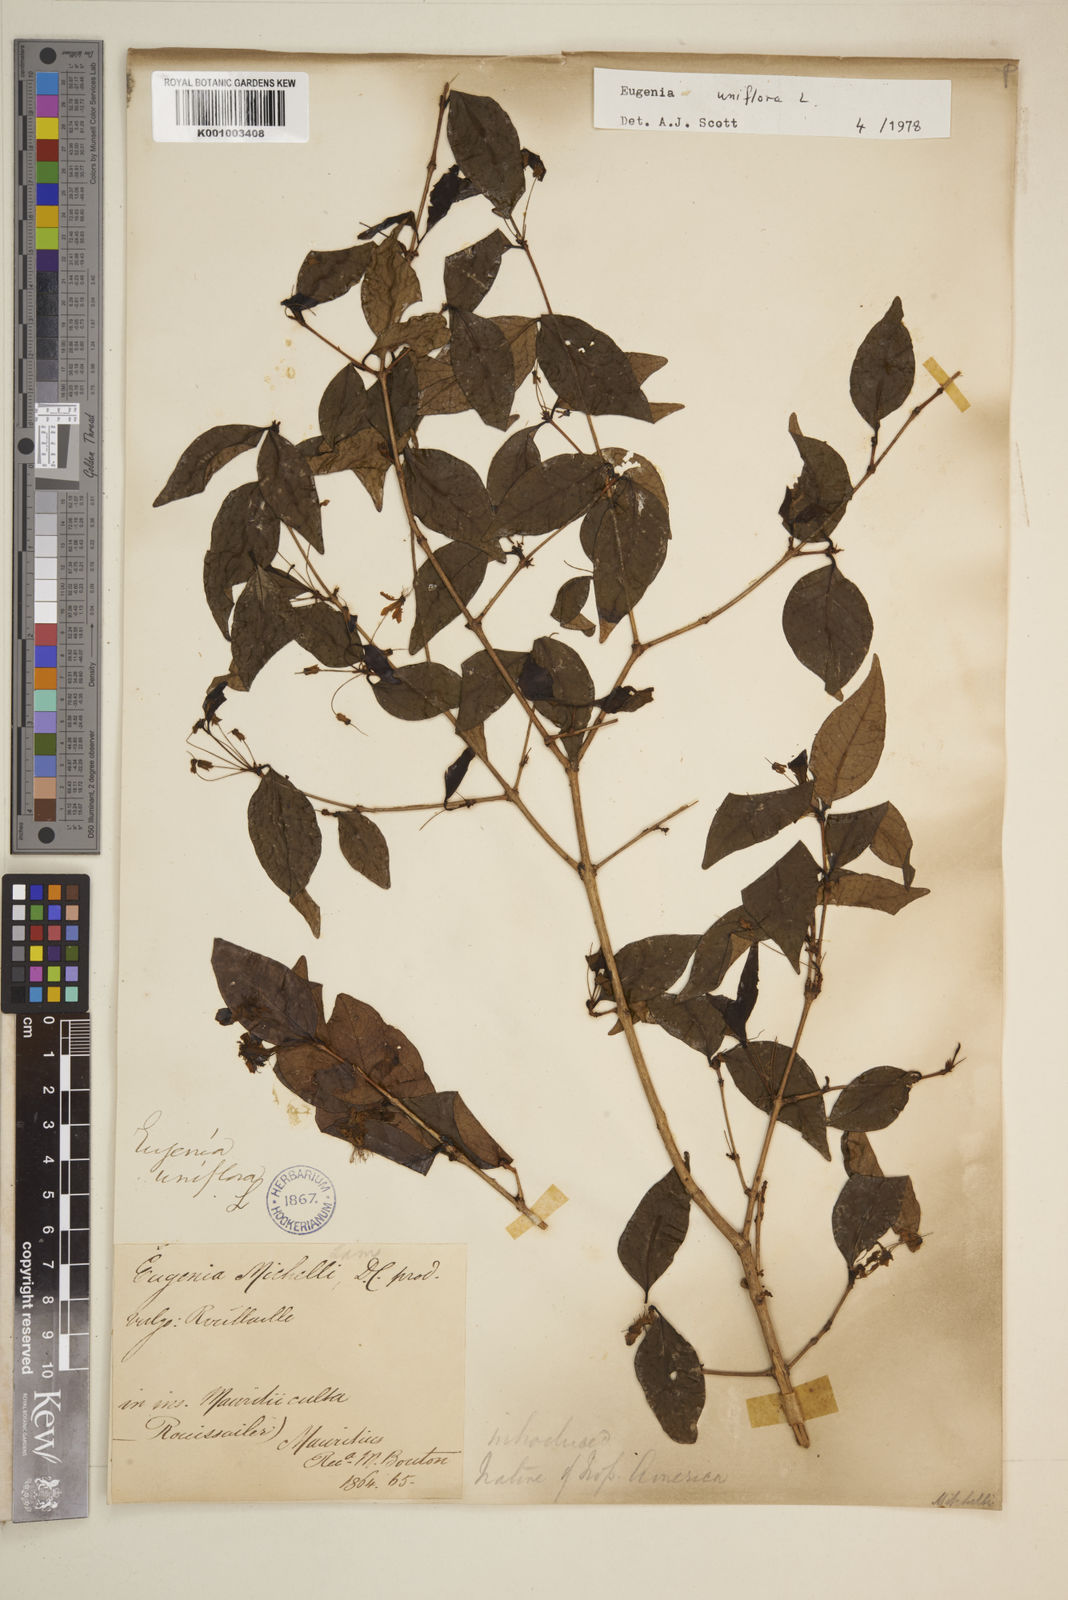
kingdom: Plantae
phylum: Tracheophyta
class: Magnoliopsida
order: Myrtales
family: Myrtaceae
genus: Eugenia
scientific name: Eugenia uniflora
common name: Surinam cherry
